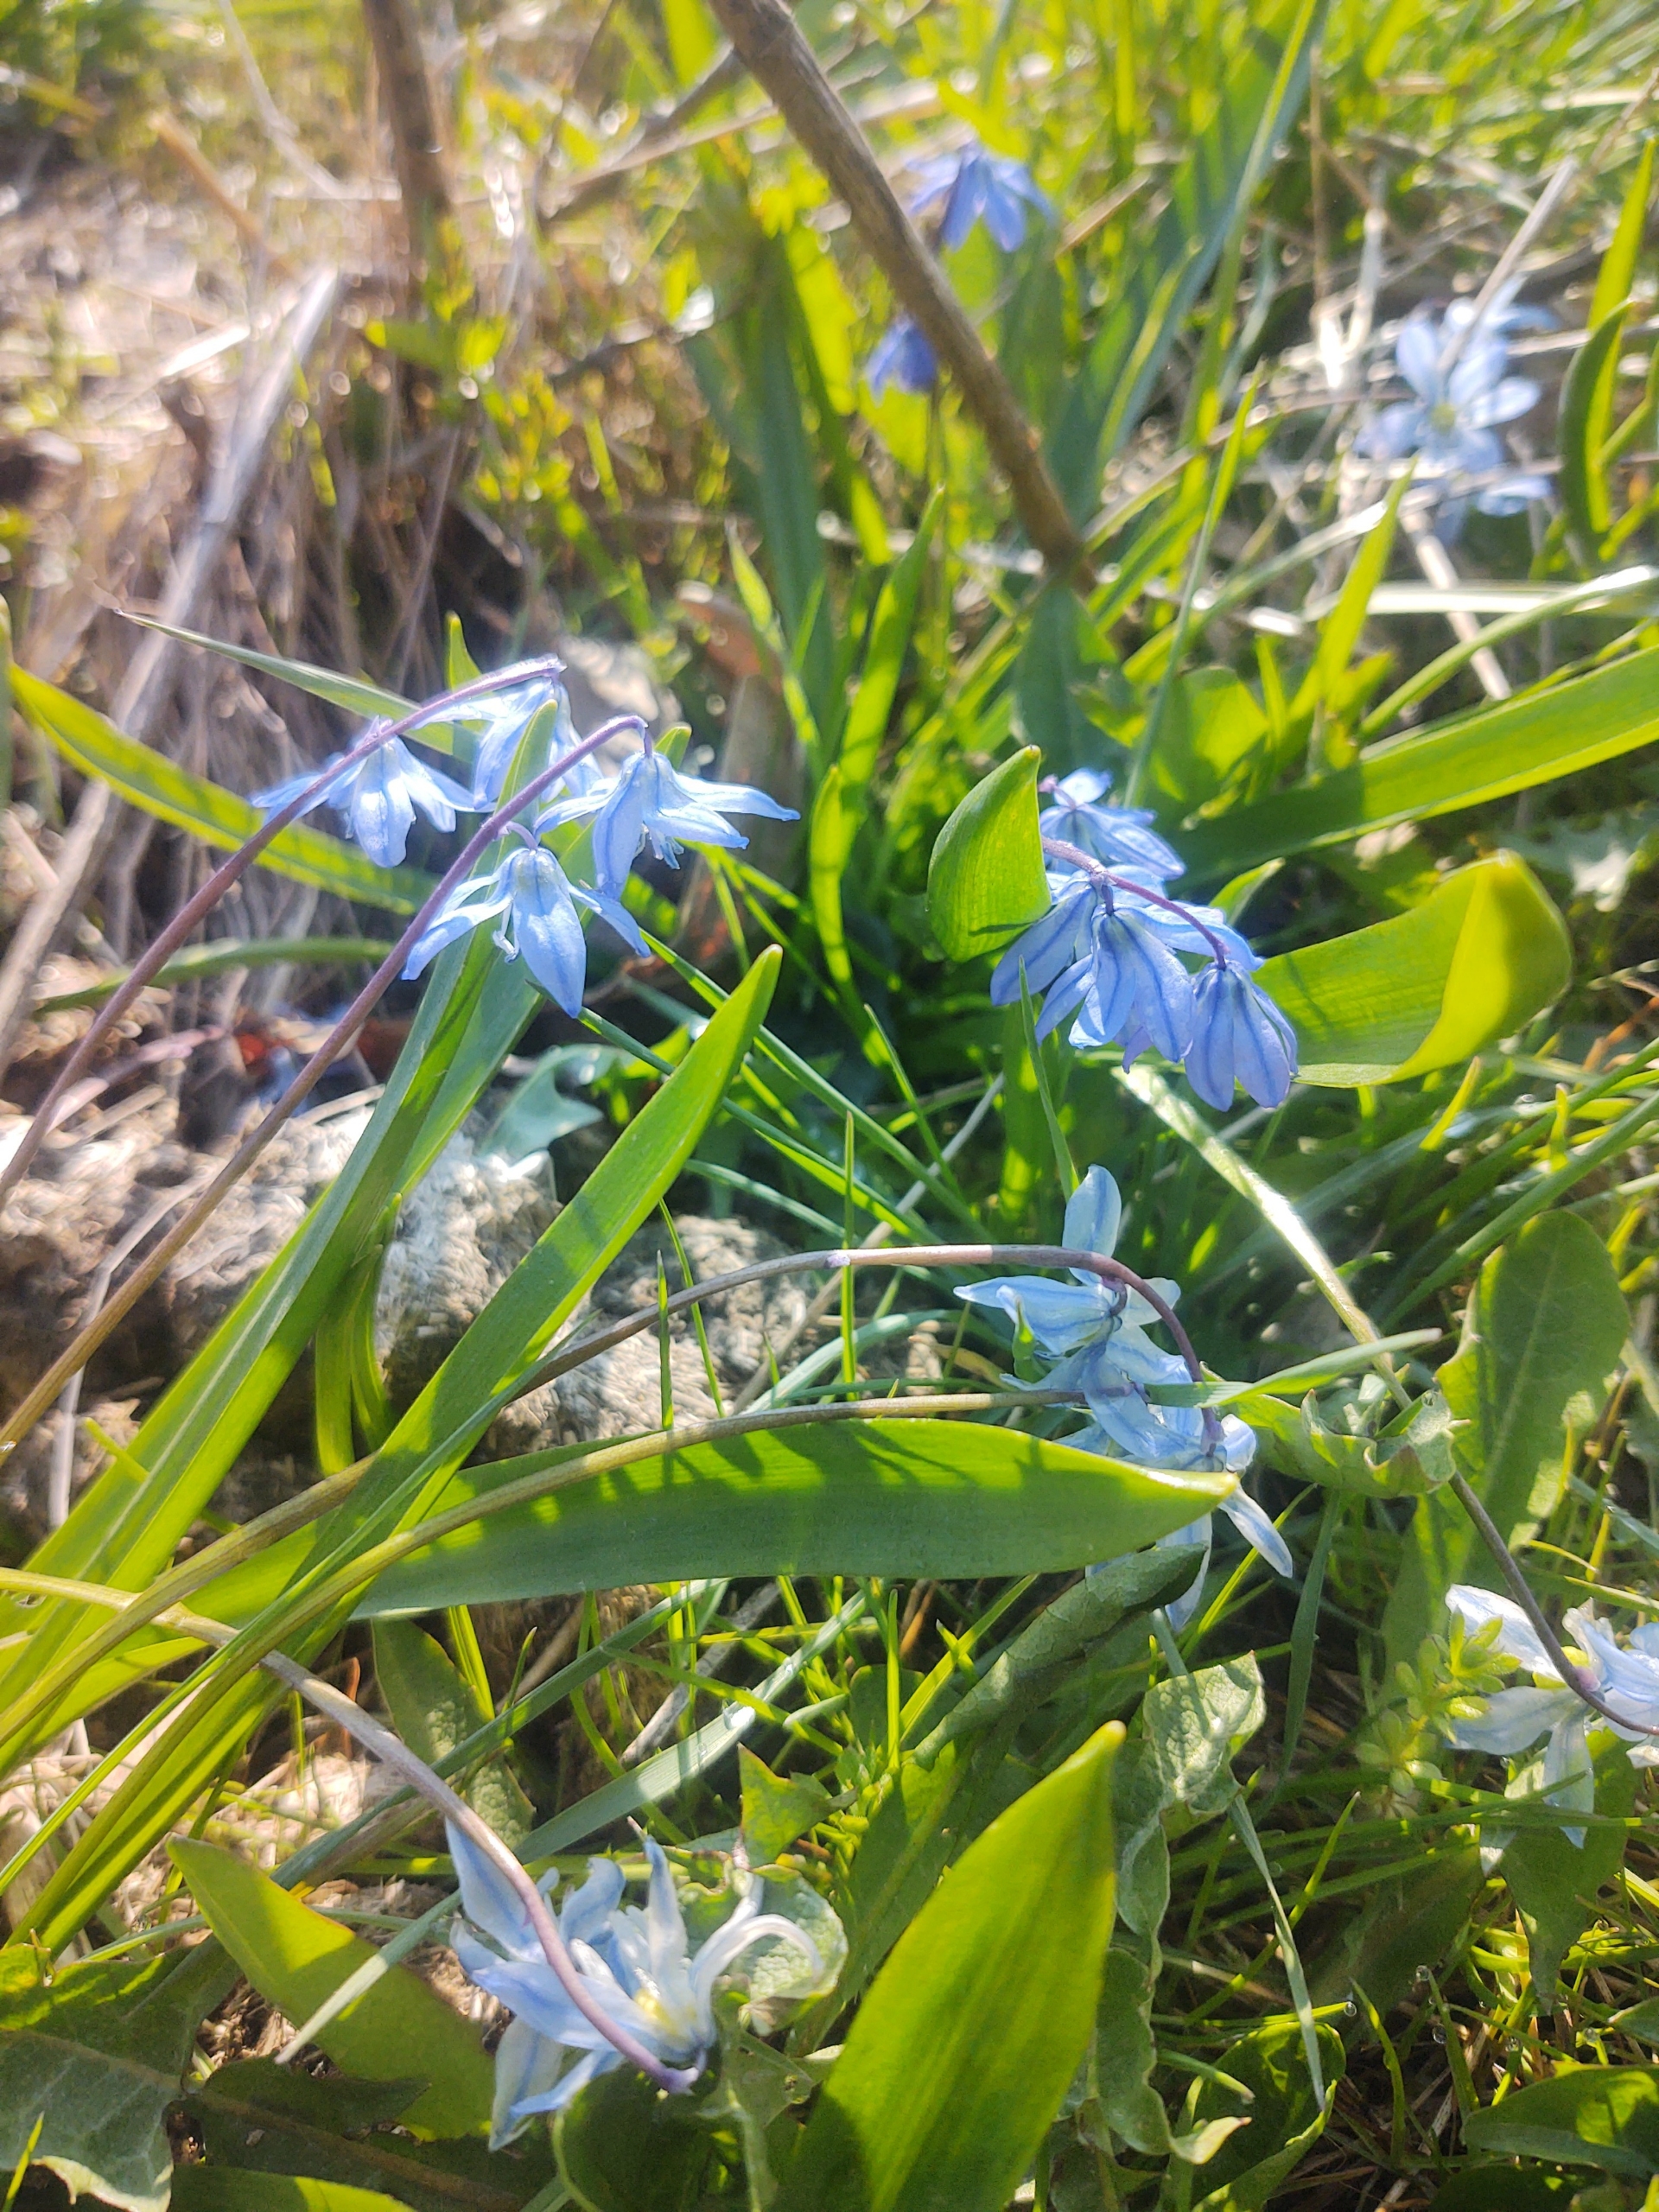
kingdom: Plantae
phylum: Tracheophyta
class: Liliopsida
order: Asparagales
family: Asparagaceae
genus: Scilla
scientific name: Scilla siberica
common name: Russisk skilla
